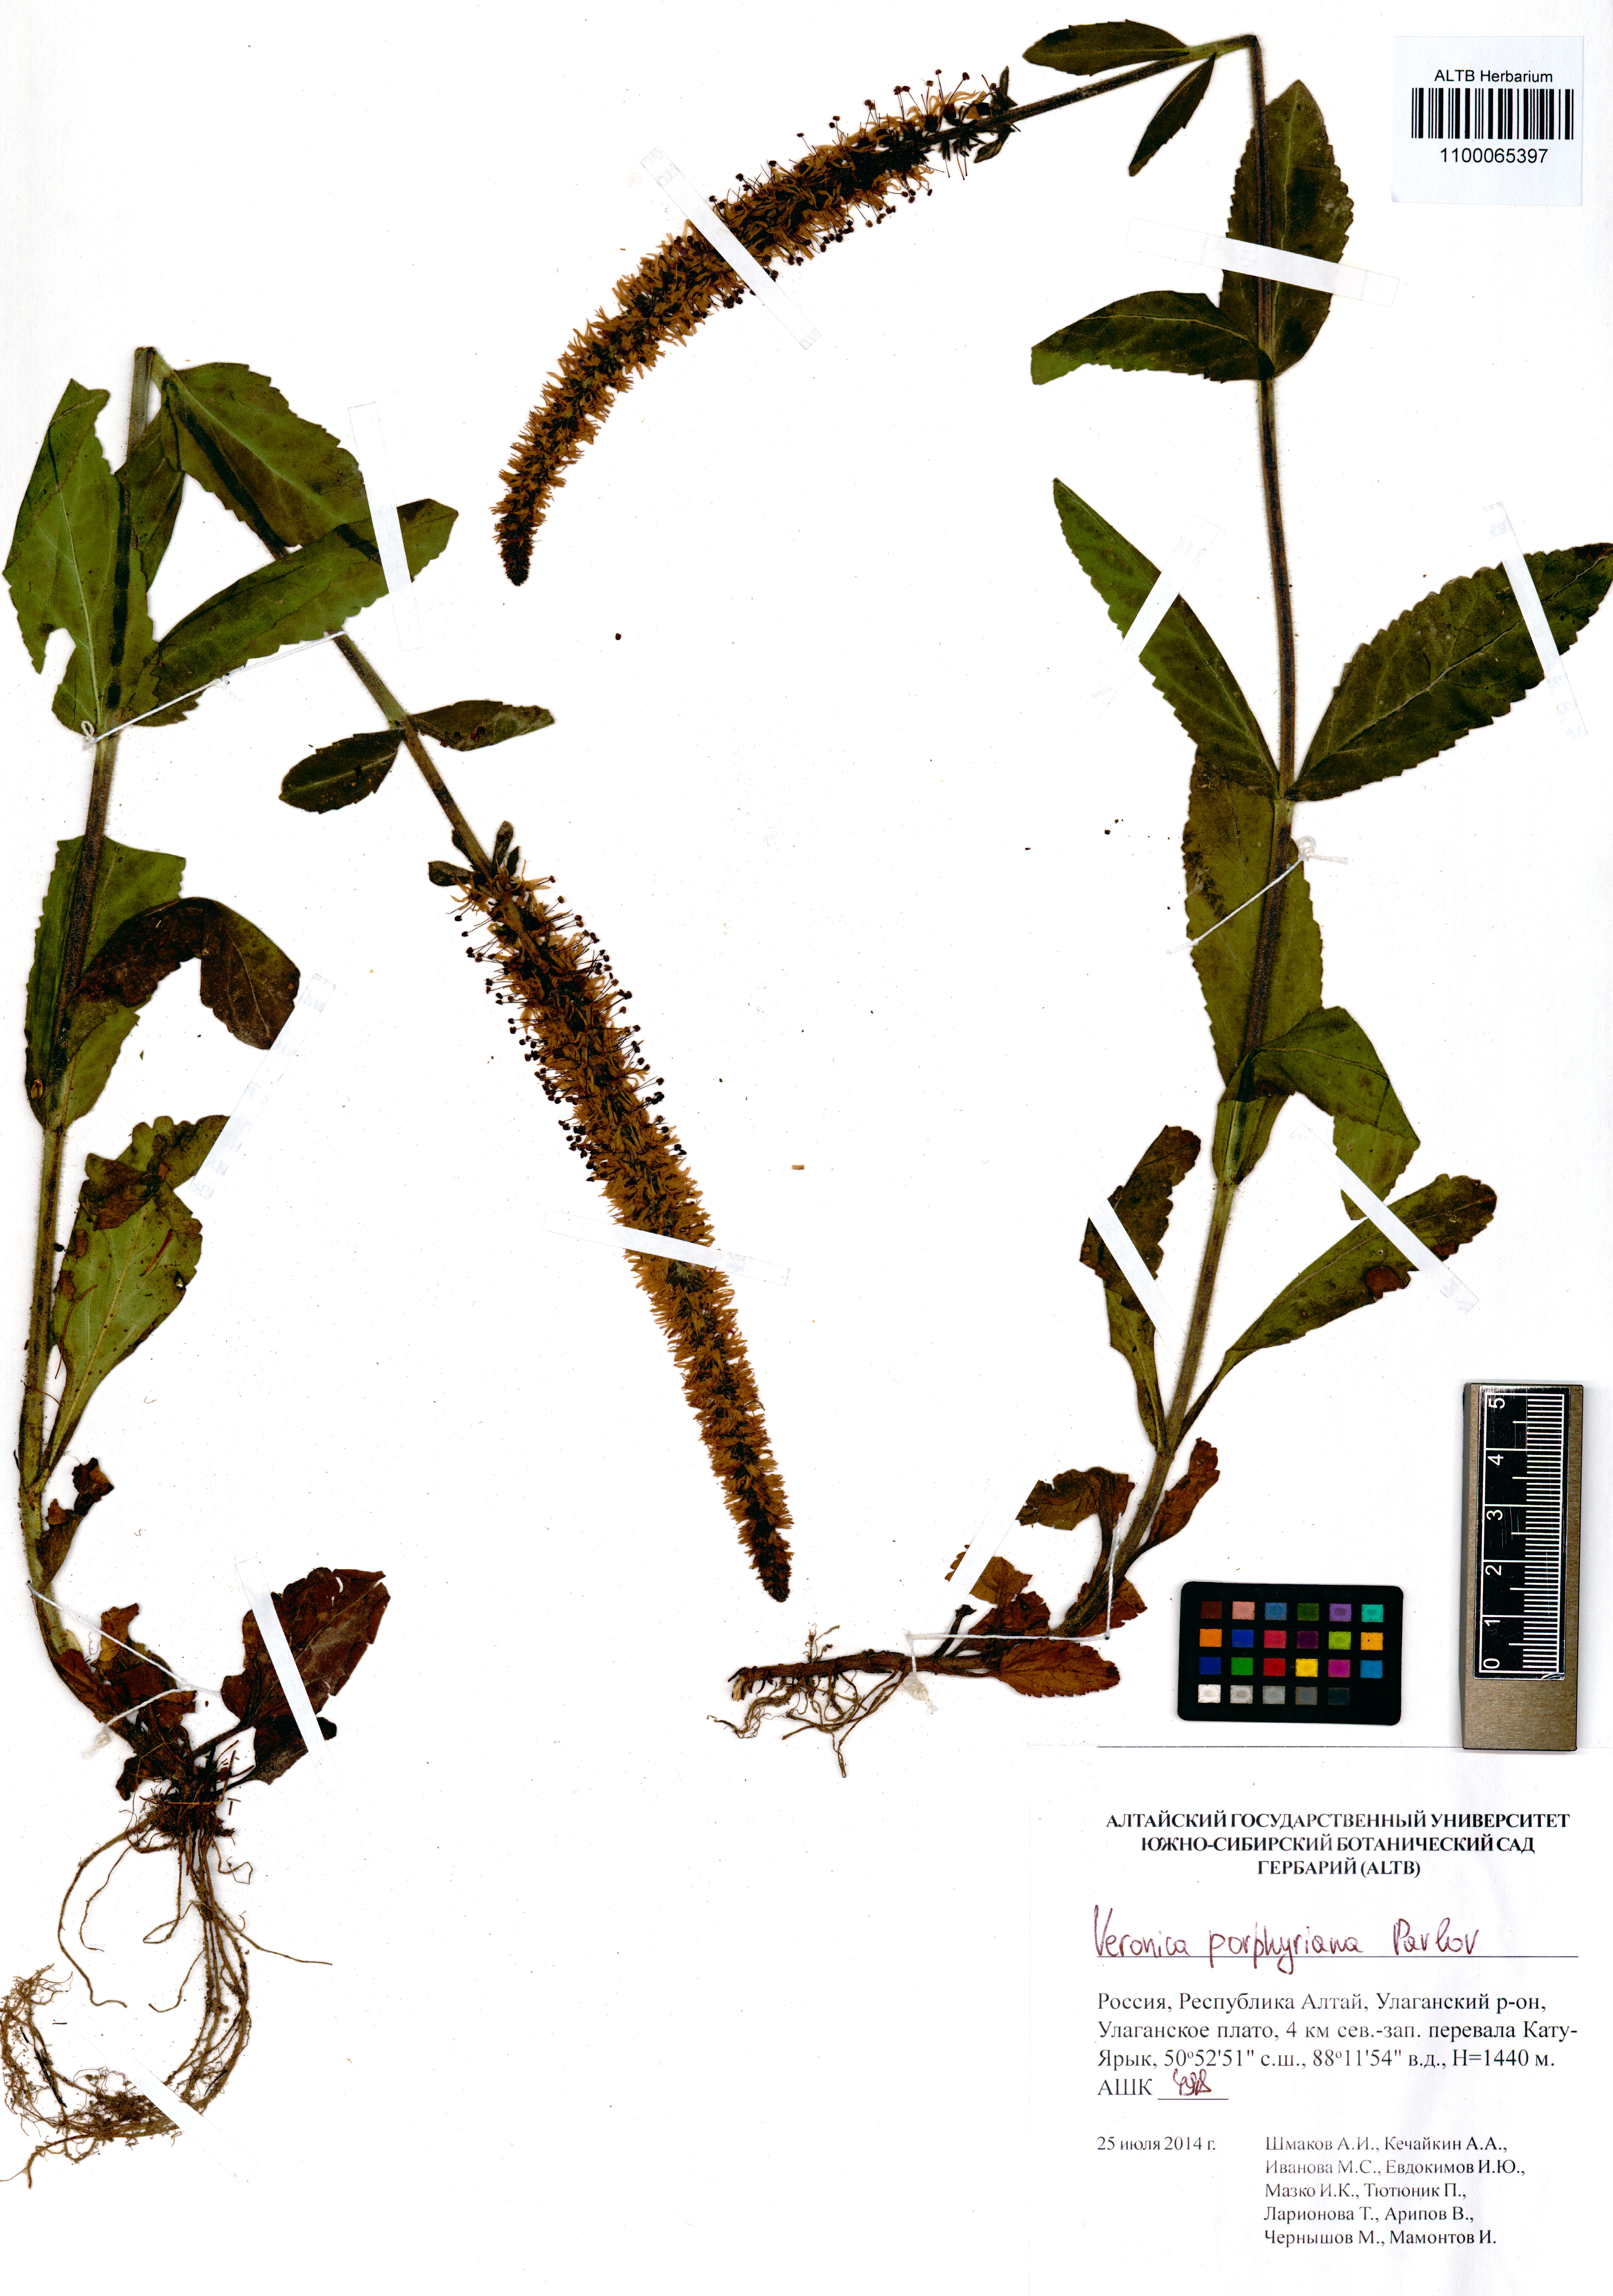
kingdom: Plantae
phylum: Tracheophyta
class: Magnoliopsida
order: Lamiales
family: Plantaginaceae
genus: Veronica
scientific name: Veronica porphyriana
